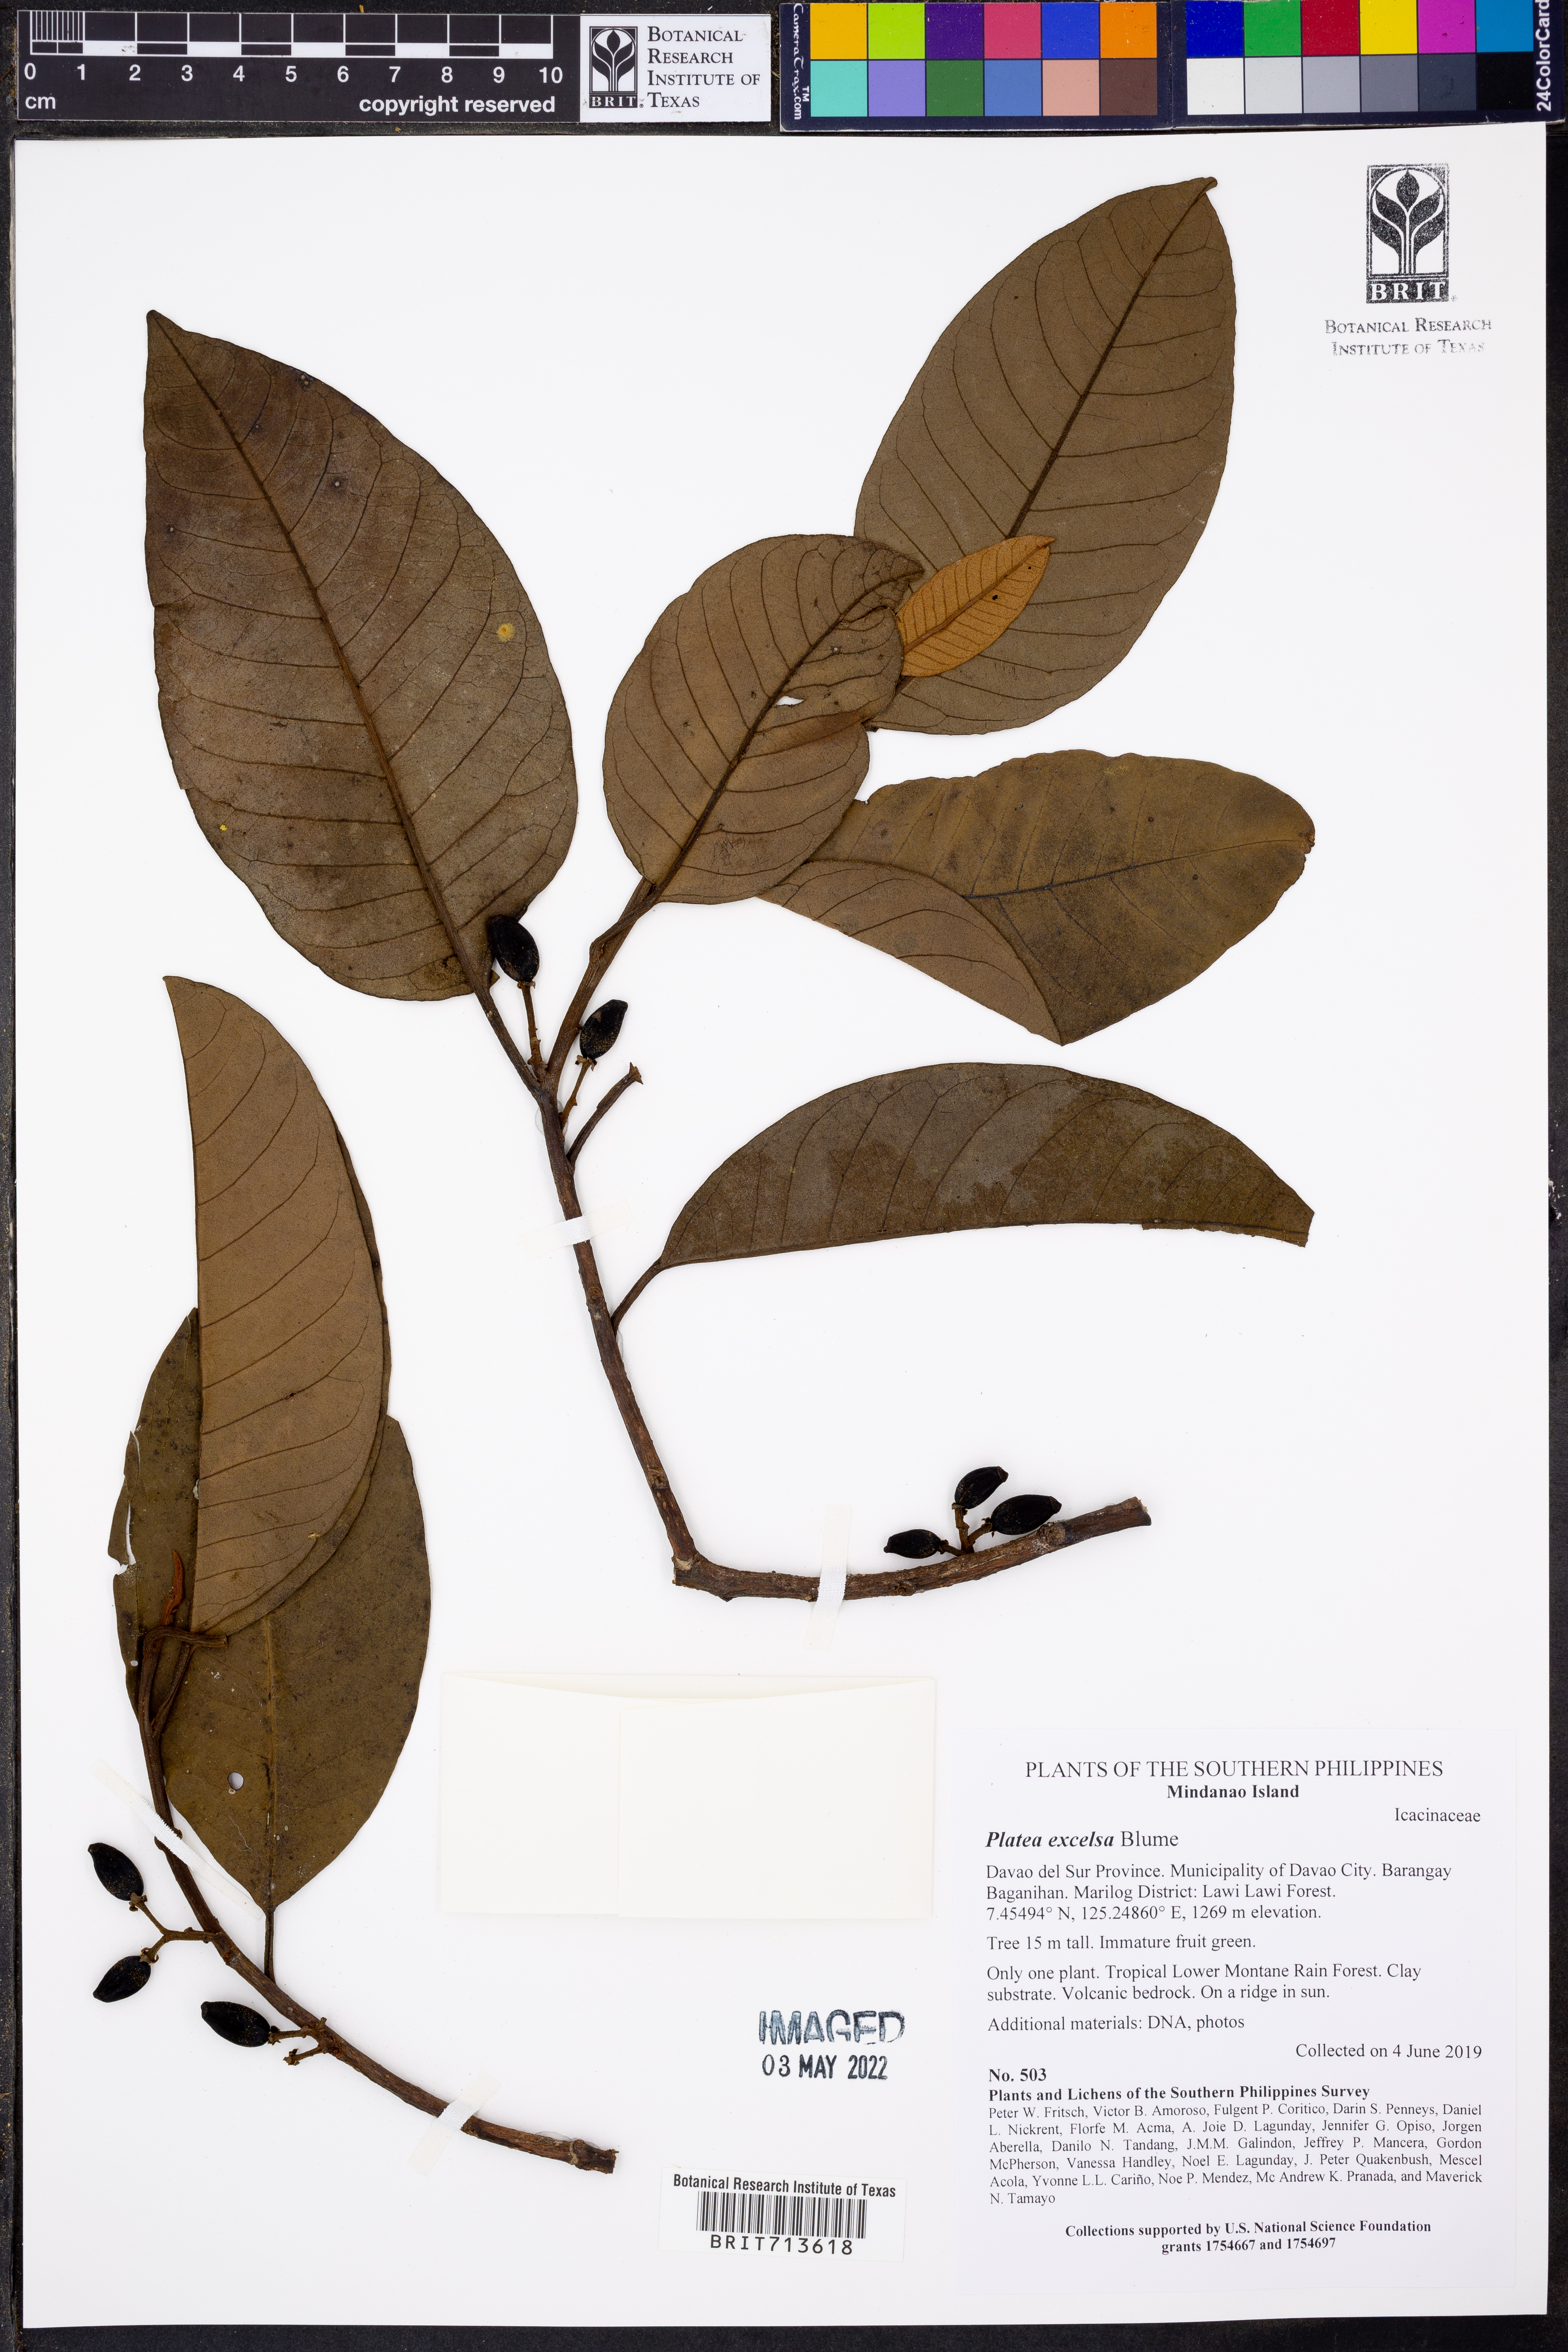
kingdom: Plantae
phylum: Tracheophyta
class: Magnoliopsida
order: Metteniusales
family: Metteniusaceae
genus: Platea
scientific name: Platea excelsa
